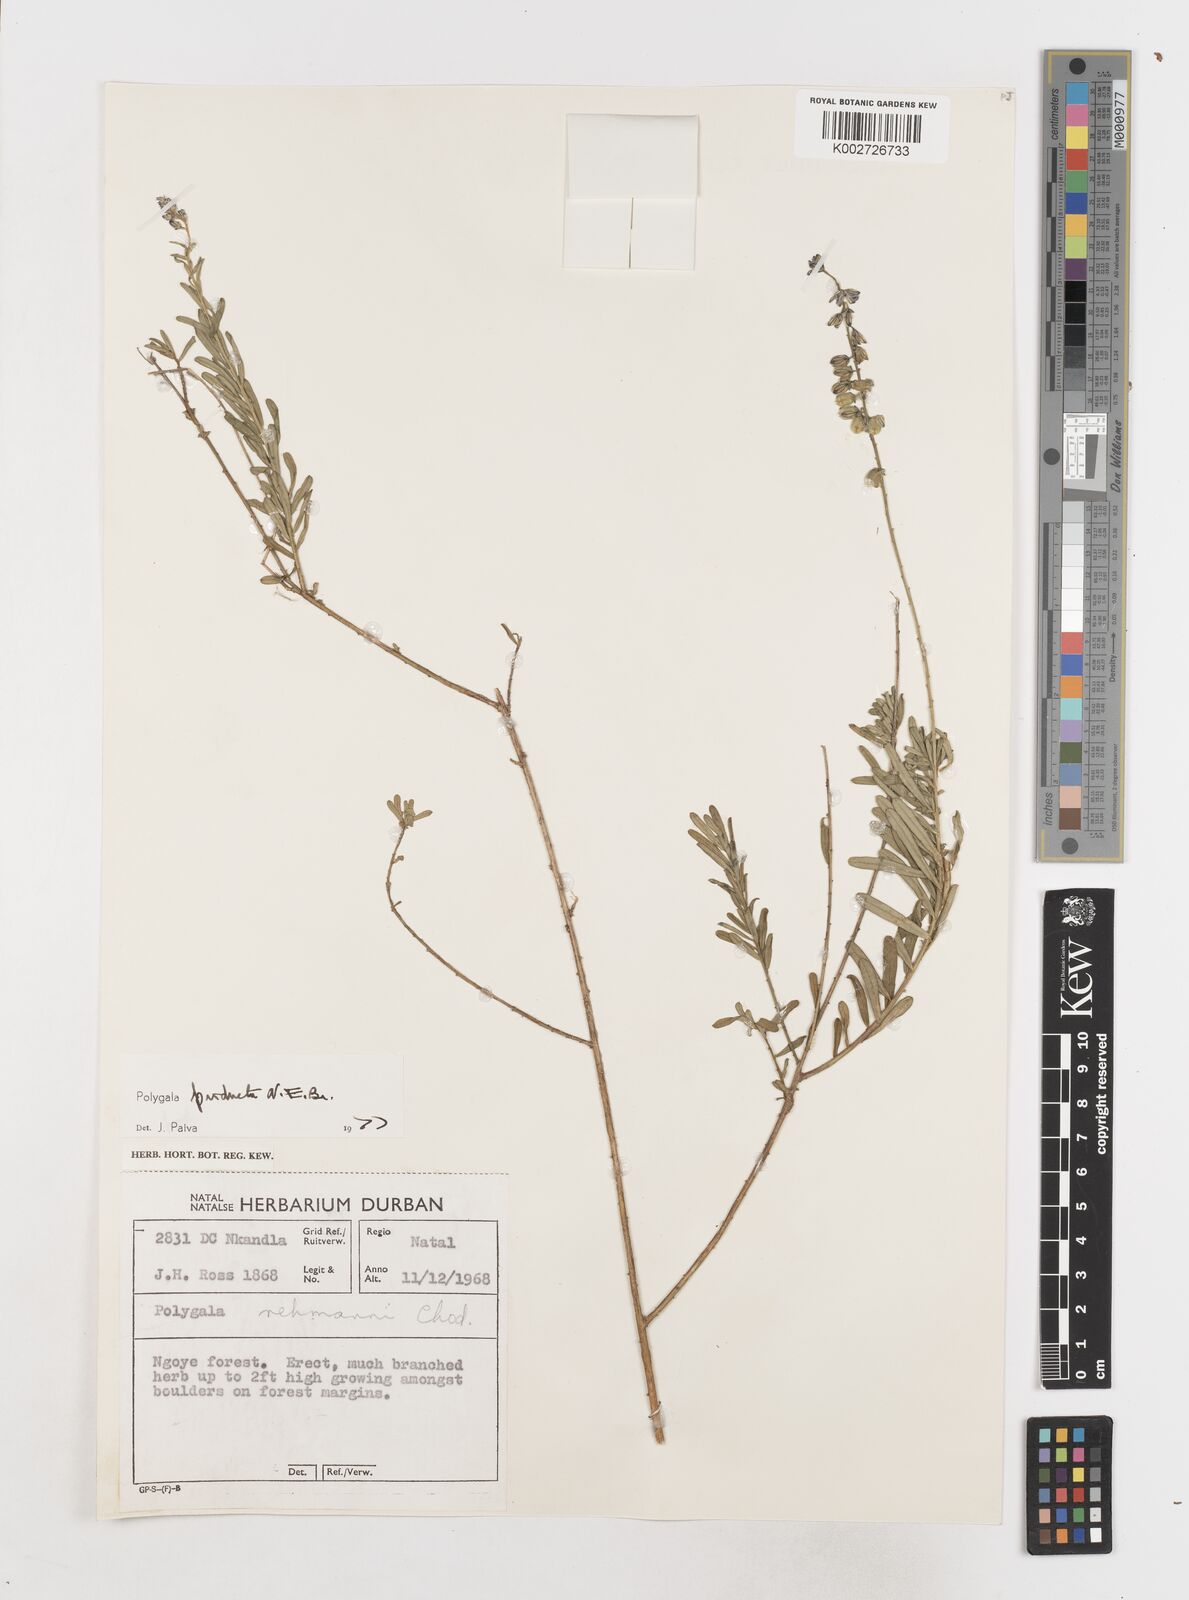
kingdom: Plantae
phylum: Tracheophyta
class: Magnoliopsida
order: Fabales
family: Polygalaceae
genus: Polygala
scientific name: Polygala producta
